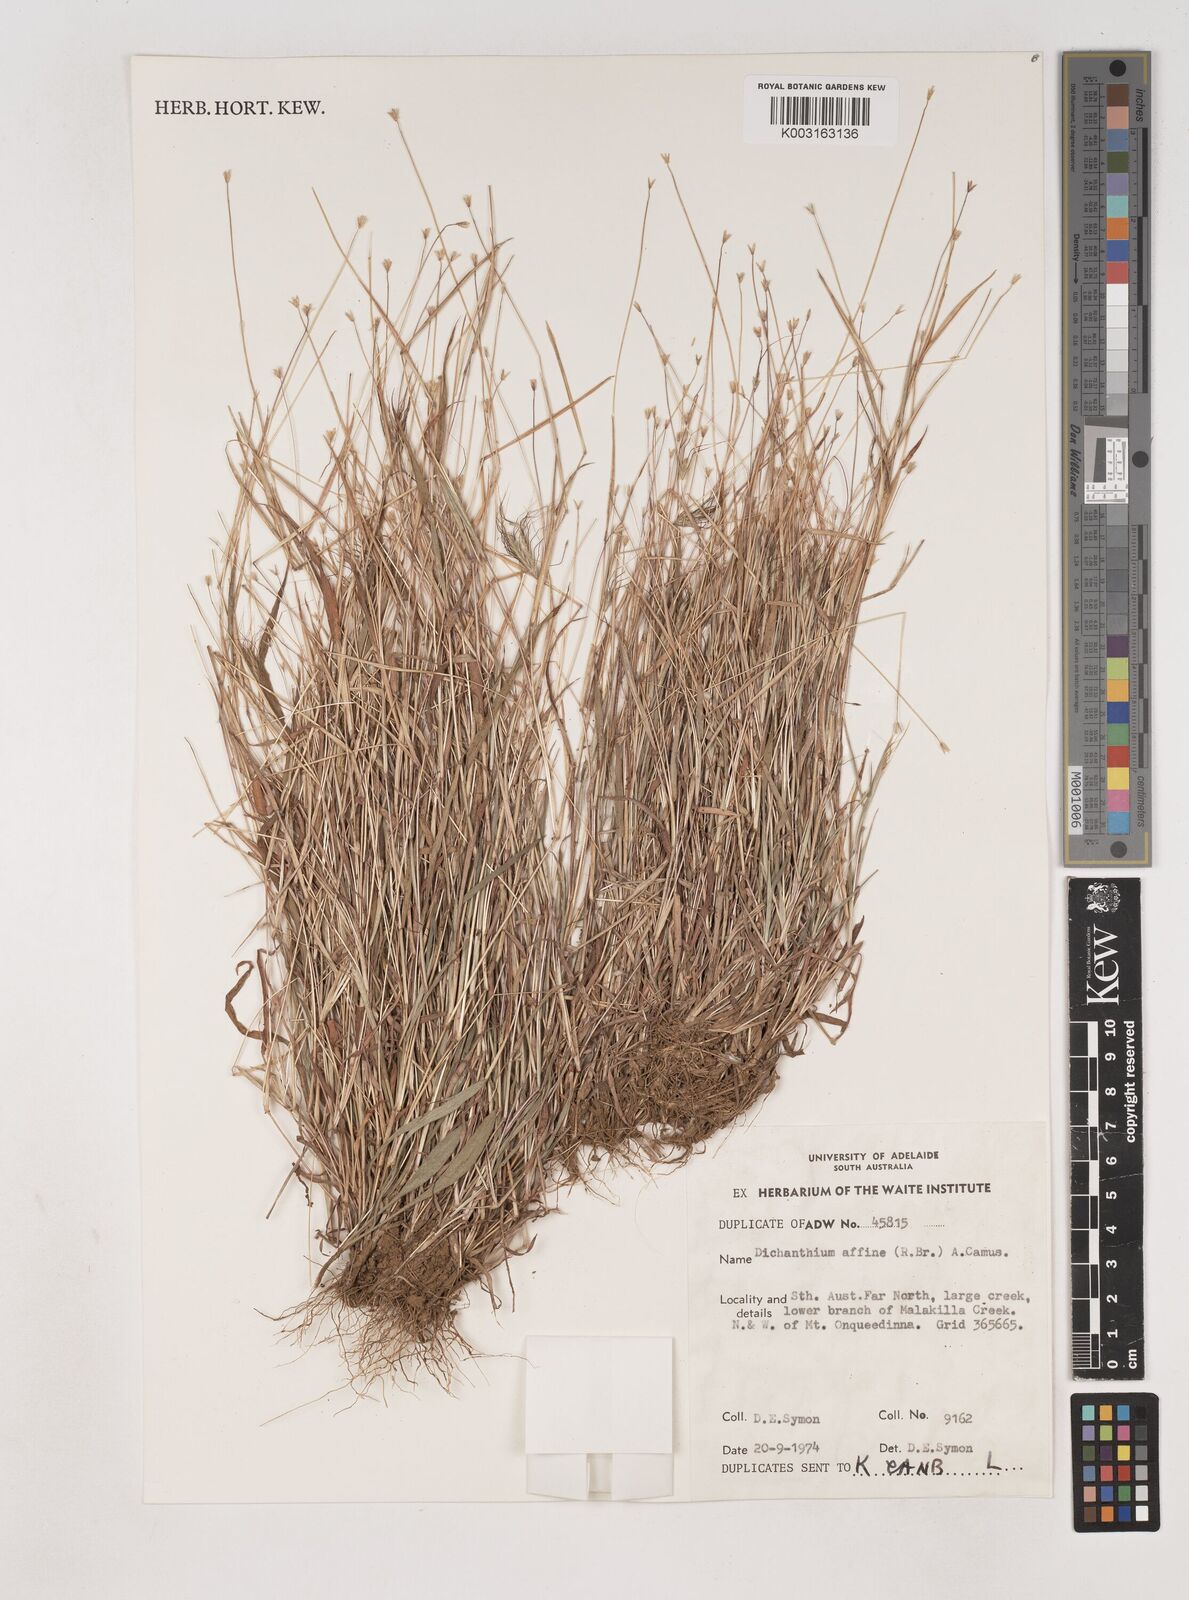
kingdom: Plantae
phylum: Tracheophyta
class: Liliopsida
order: Poales
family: Poaceae
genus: Dichanthium
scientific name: Dichanthium sericeum
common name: Silky bluestem
